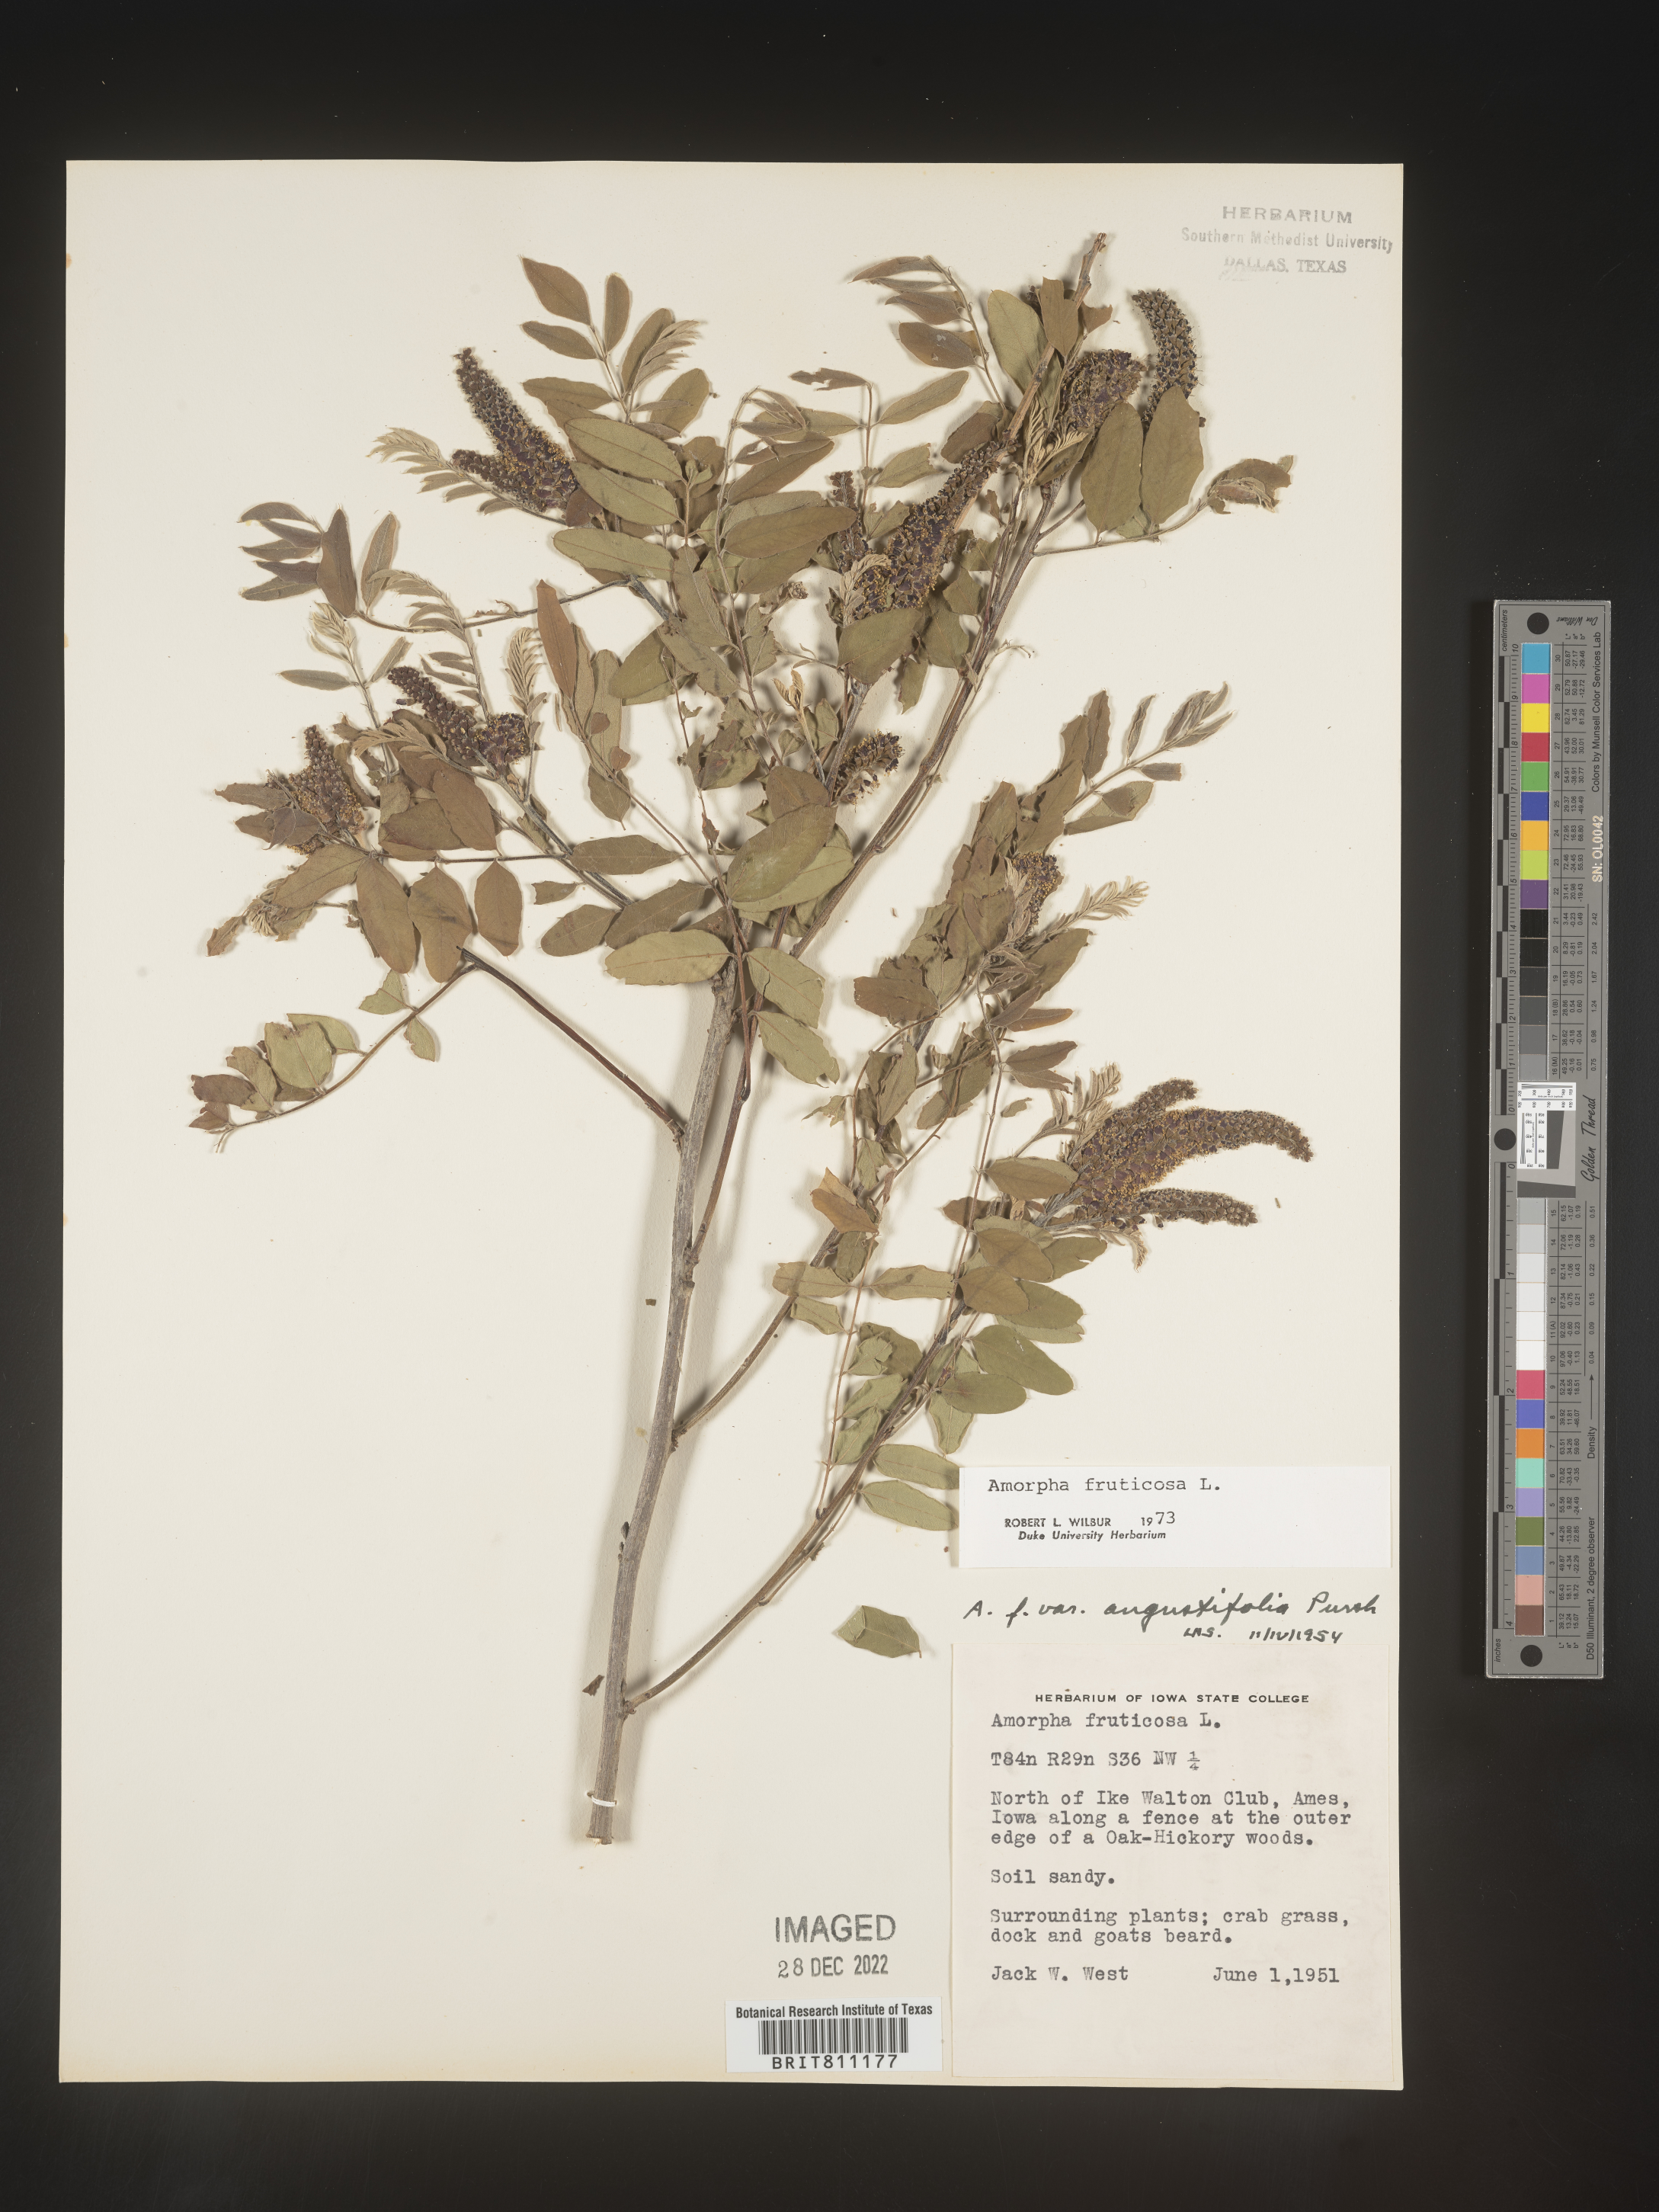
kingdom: Plantae
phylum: Tracheophyta
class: Magnoliopsida
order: Fabales
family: Fabaceae
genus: Amorpha
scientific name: Amorpha fruticosa
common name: False indigo
